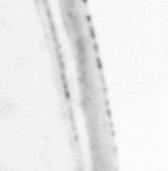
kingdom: Animalia
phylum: Chordata
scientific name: Chordata
